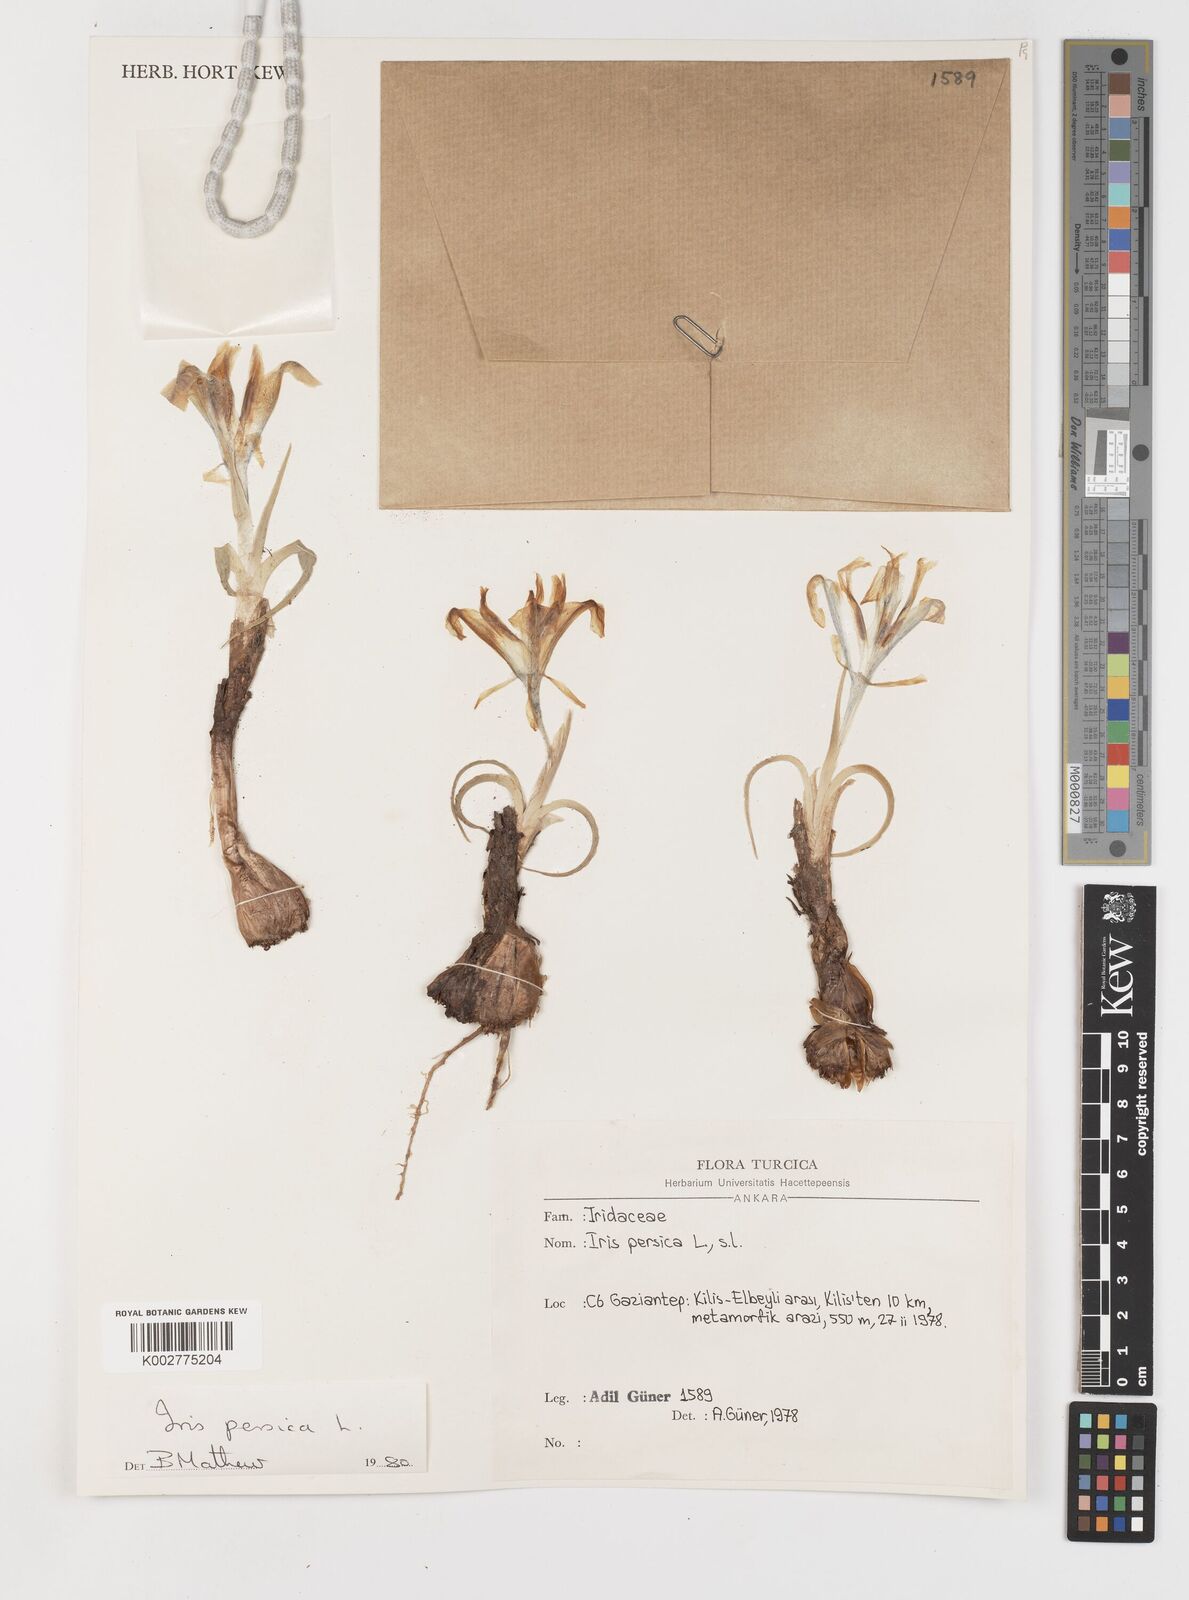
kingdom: Plantae
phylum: Tracheophyta
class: Liliopsida
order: Asparagales
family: Iridaceae
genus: Iris
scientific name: Iris persica
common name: Persian iris
